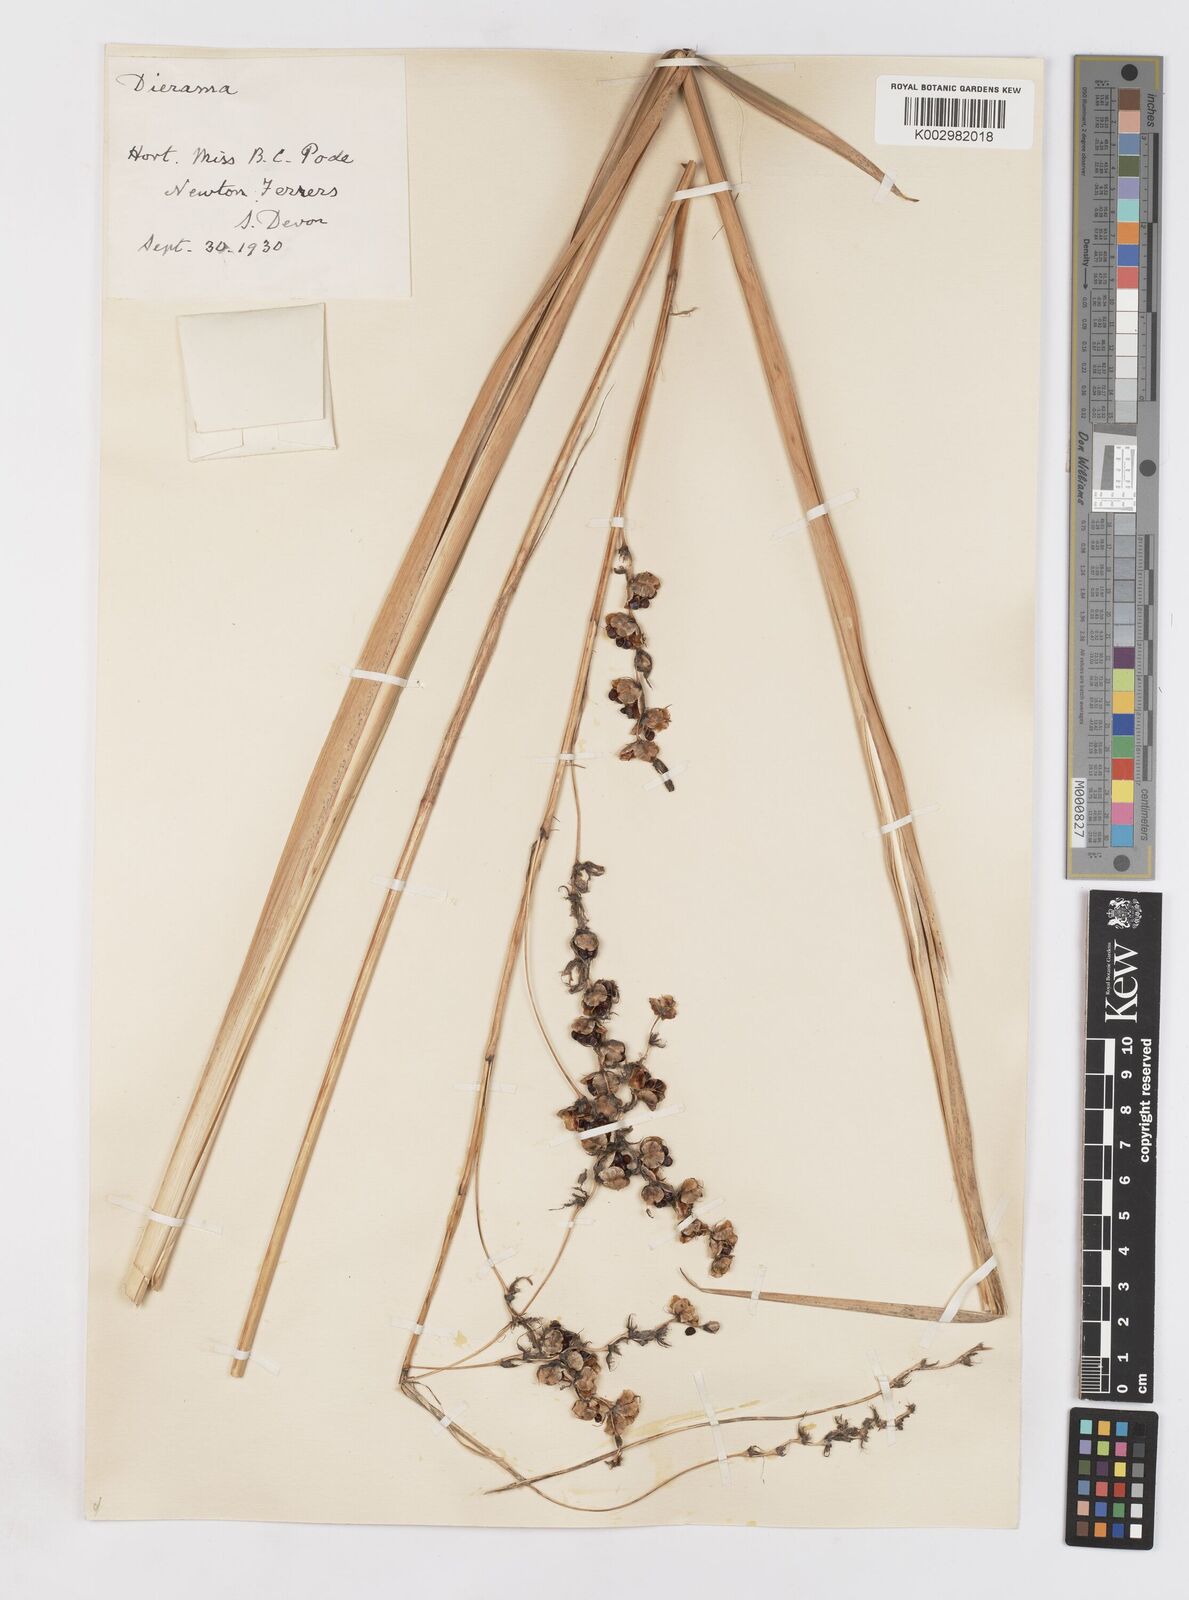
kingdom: Plantae
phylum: Tracheophyta
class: Liliopsida
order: Asparagales
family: Iridaceae
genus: Dierama
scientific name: Dierama pendulum
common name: Grassy-bell
